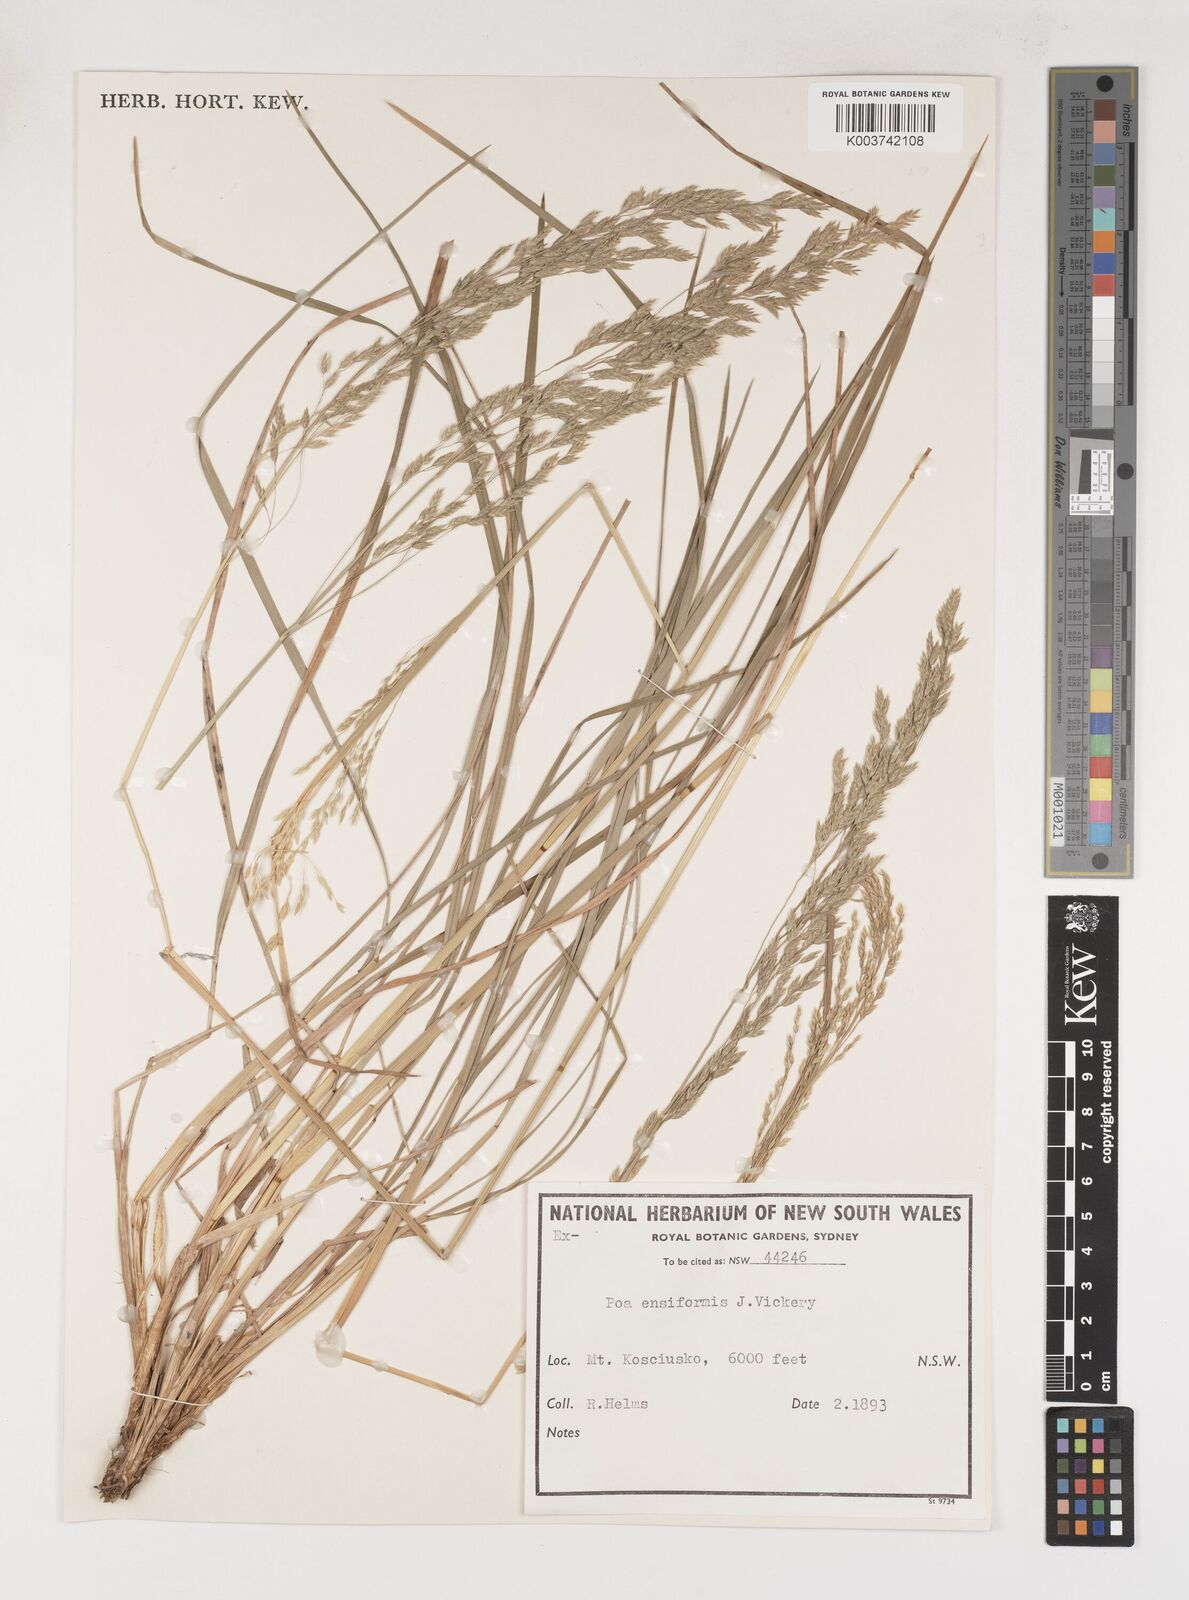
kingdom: Plantae
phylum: Tracheophyta
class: Liliopsida
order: Poales
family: Poaceae
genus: Poa
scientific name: Poa ensiformis
